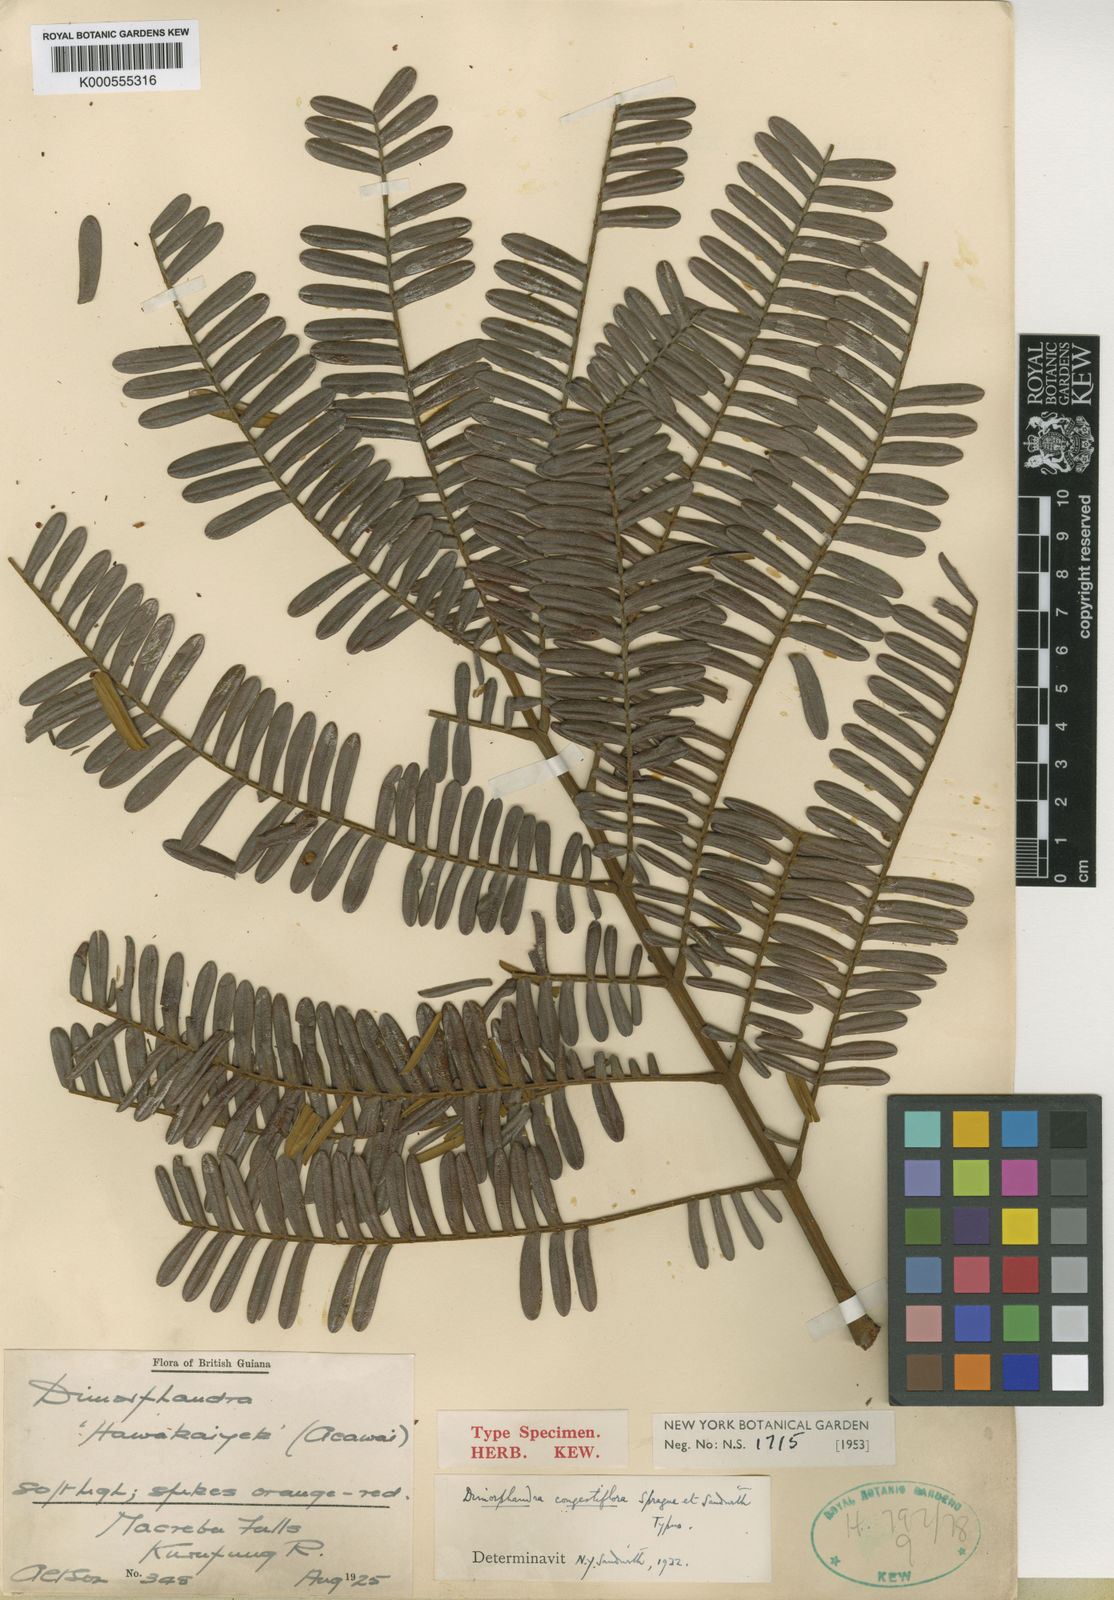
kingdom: Plantae
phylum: Tracheophyta
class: Magnoliopsida
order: Fabales
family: Fabaceae
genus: Dimorphandra
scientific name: Dimorphandra macrostachya
